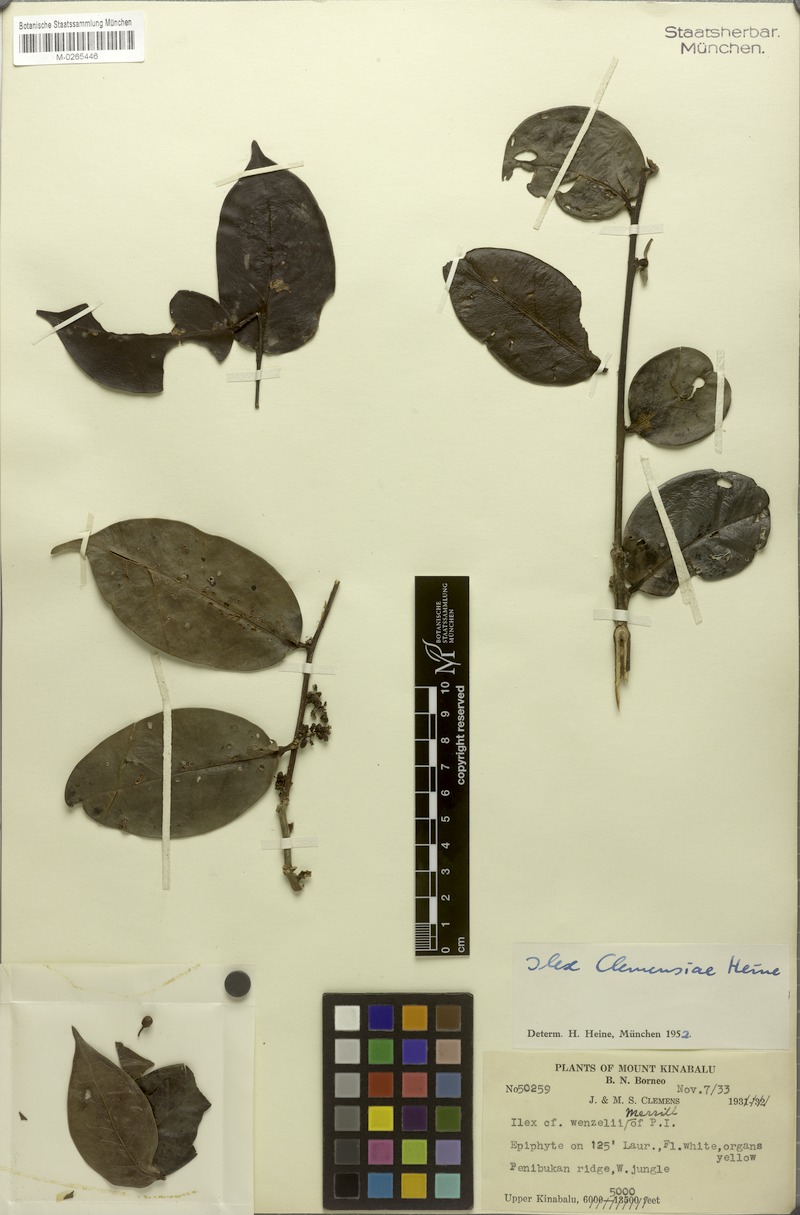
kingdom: Plantae
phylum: Tracheophyta
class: Magnoliopsida
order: Aquifoliales
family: Aquifoliaceae
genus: Ilex
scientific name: Ilex clemensiae
